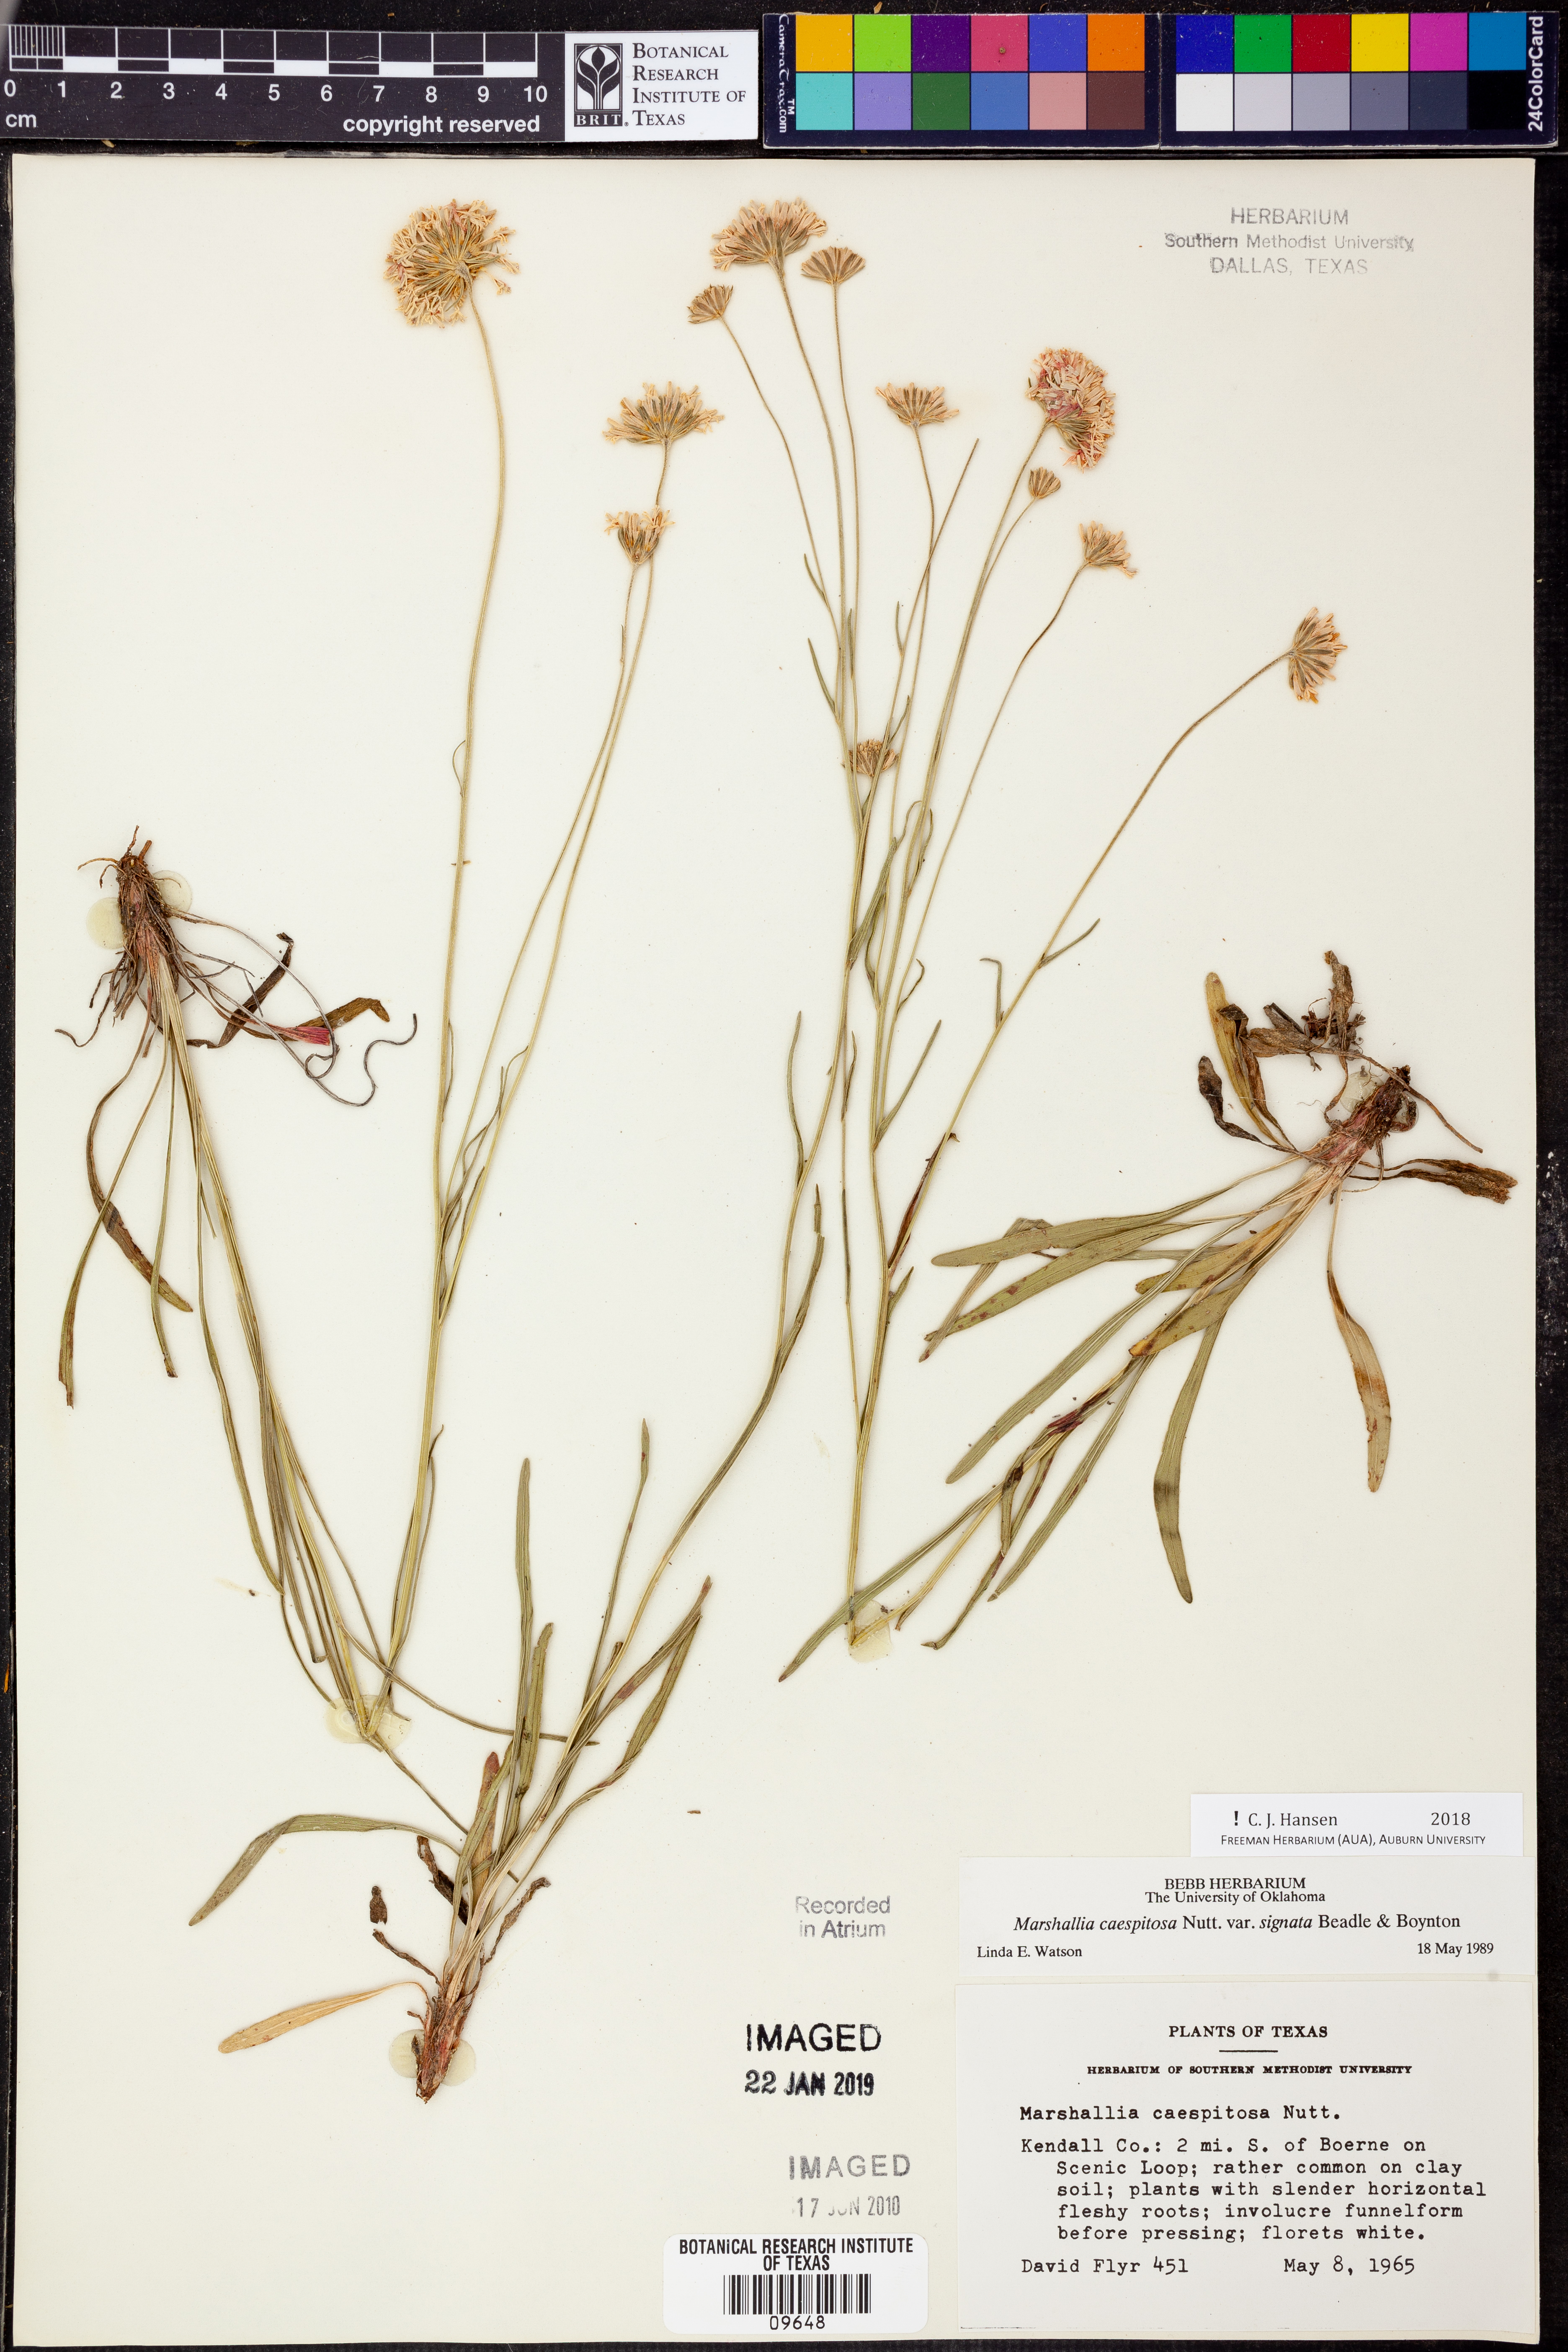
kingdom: Plantae
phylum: Tracheophyta
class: Magnoliopsida
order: Asterales
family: Asteraceae
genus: Marshallia
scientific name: Marshallia caespitosa
